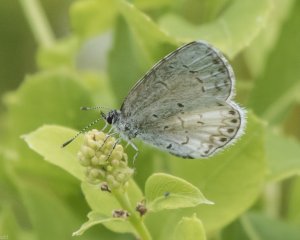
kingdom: Animalia
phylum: Arthropoda
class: Insecta
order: Lepidoptera
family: Lycaenidae
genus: Cyaniris
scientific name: Cyaniris neglecta
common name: Summer Azure
